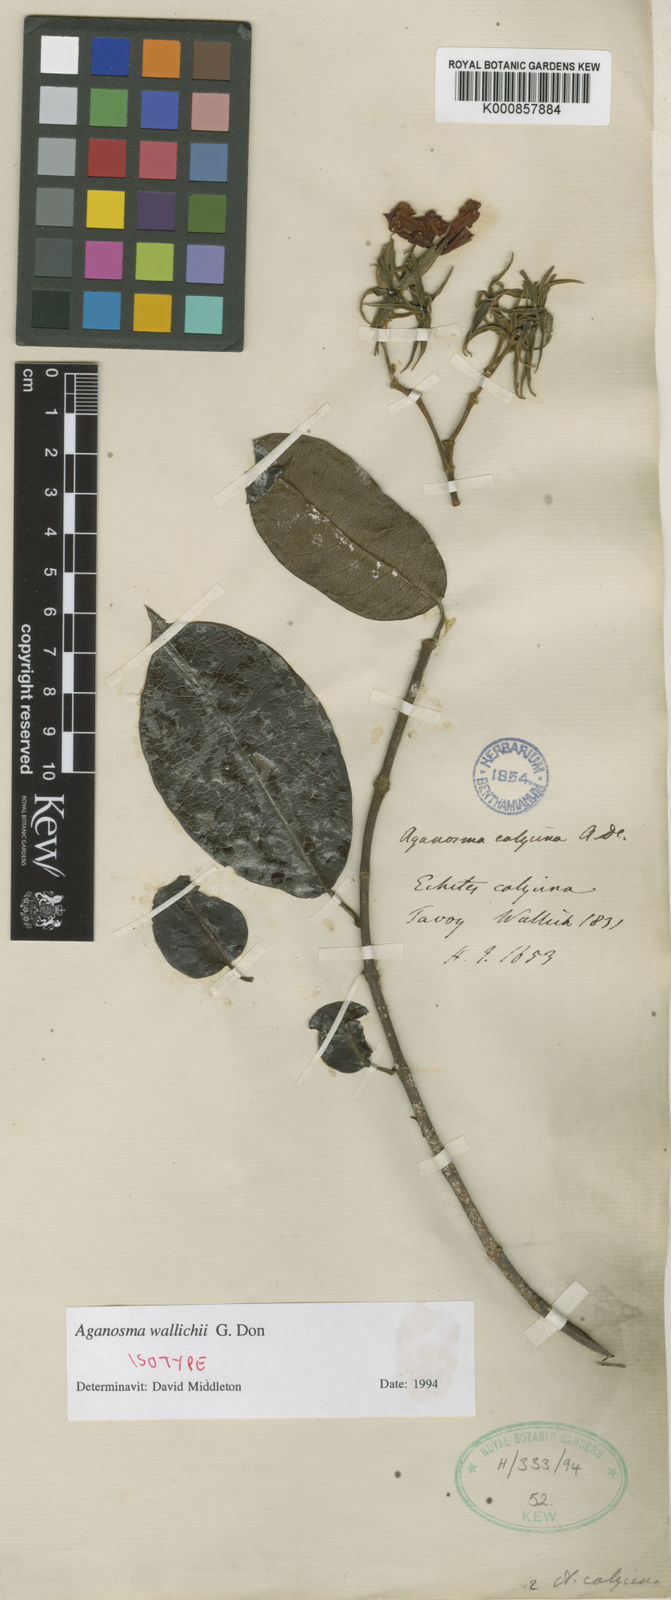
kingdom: Plantae
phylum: Tracheophyta
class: Magnoliopsida
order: Gentianales
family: Apocynaceae
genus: Aganosma
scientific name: Aganosma wallichii
